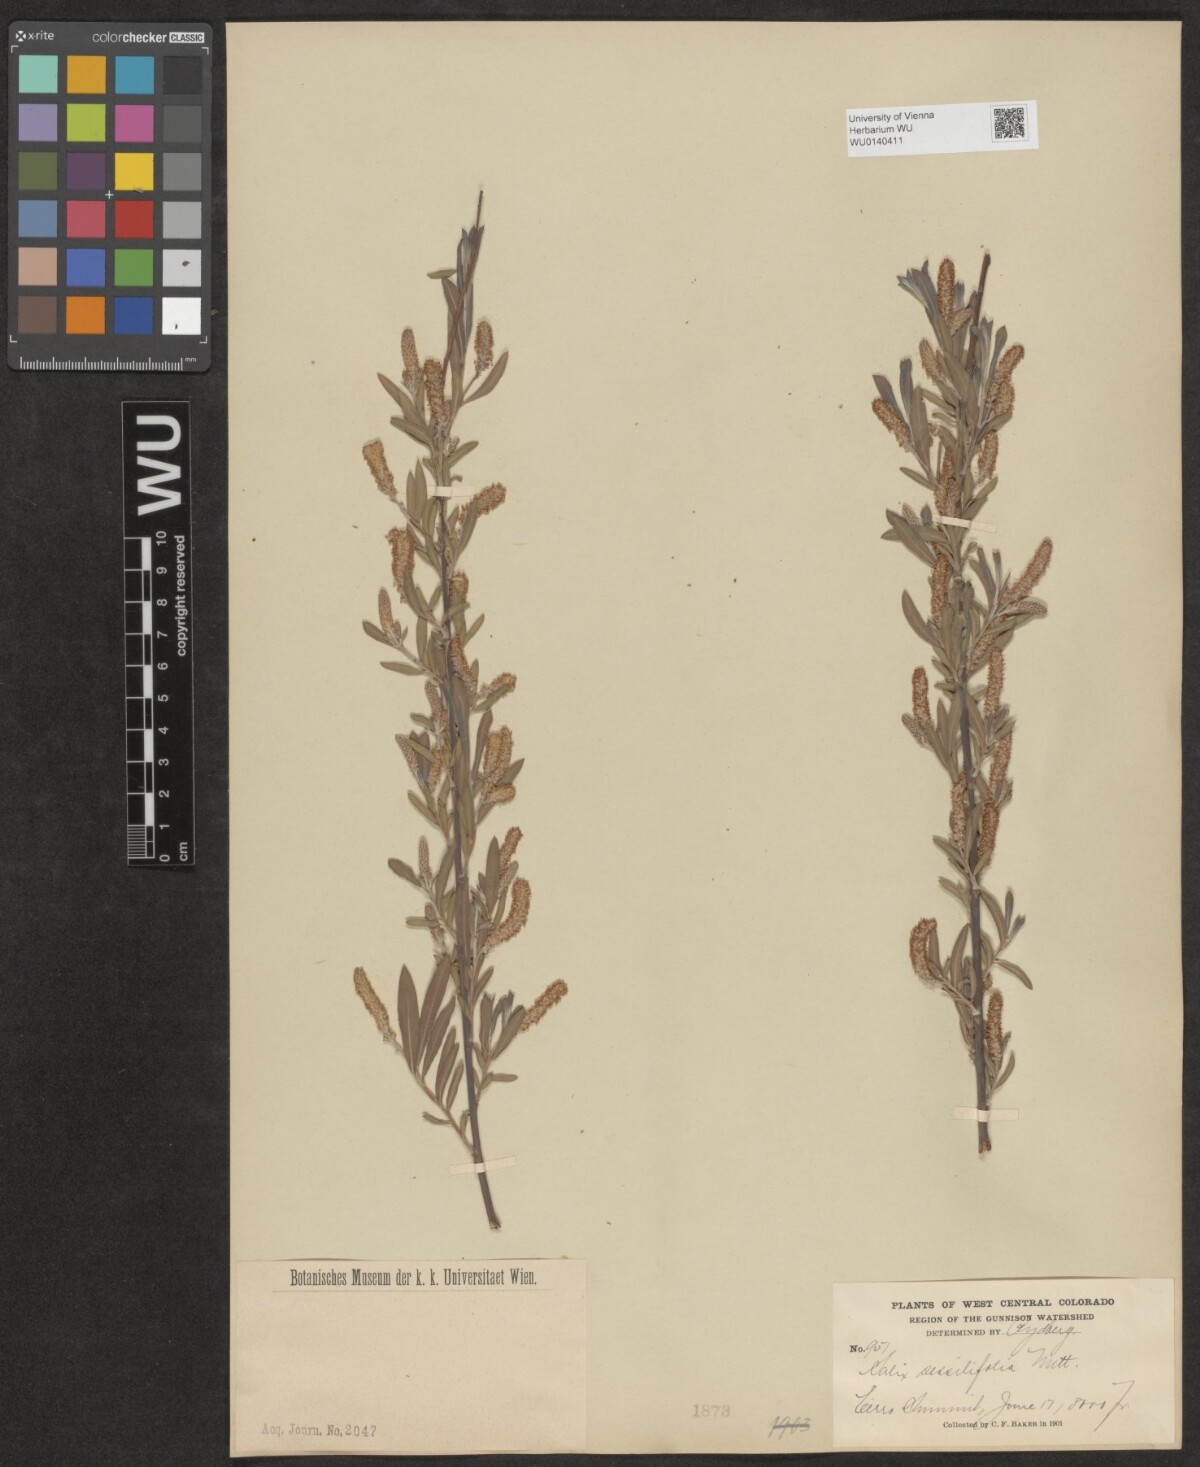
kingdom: Plantae
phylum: Tracheophyta
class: Magnoliopsida
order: Malpighiales
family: Salicaceae
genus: Salix
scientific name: Salix sessilifolia
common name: Longleaf willow
